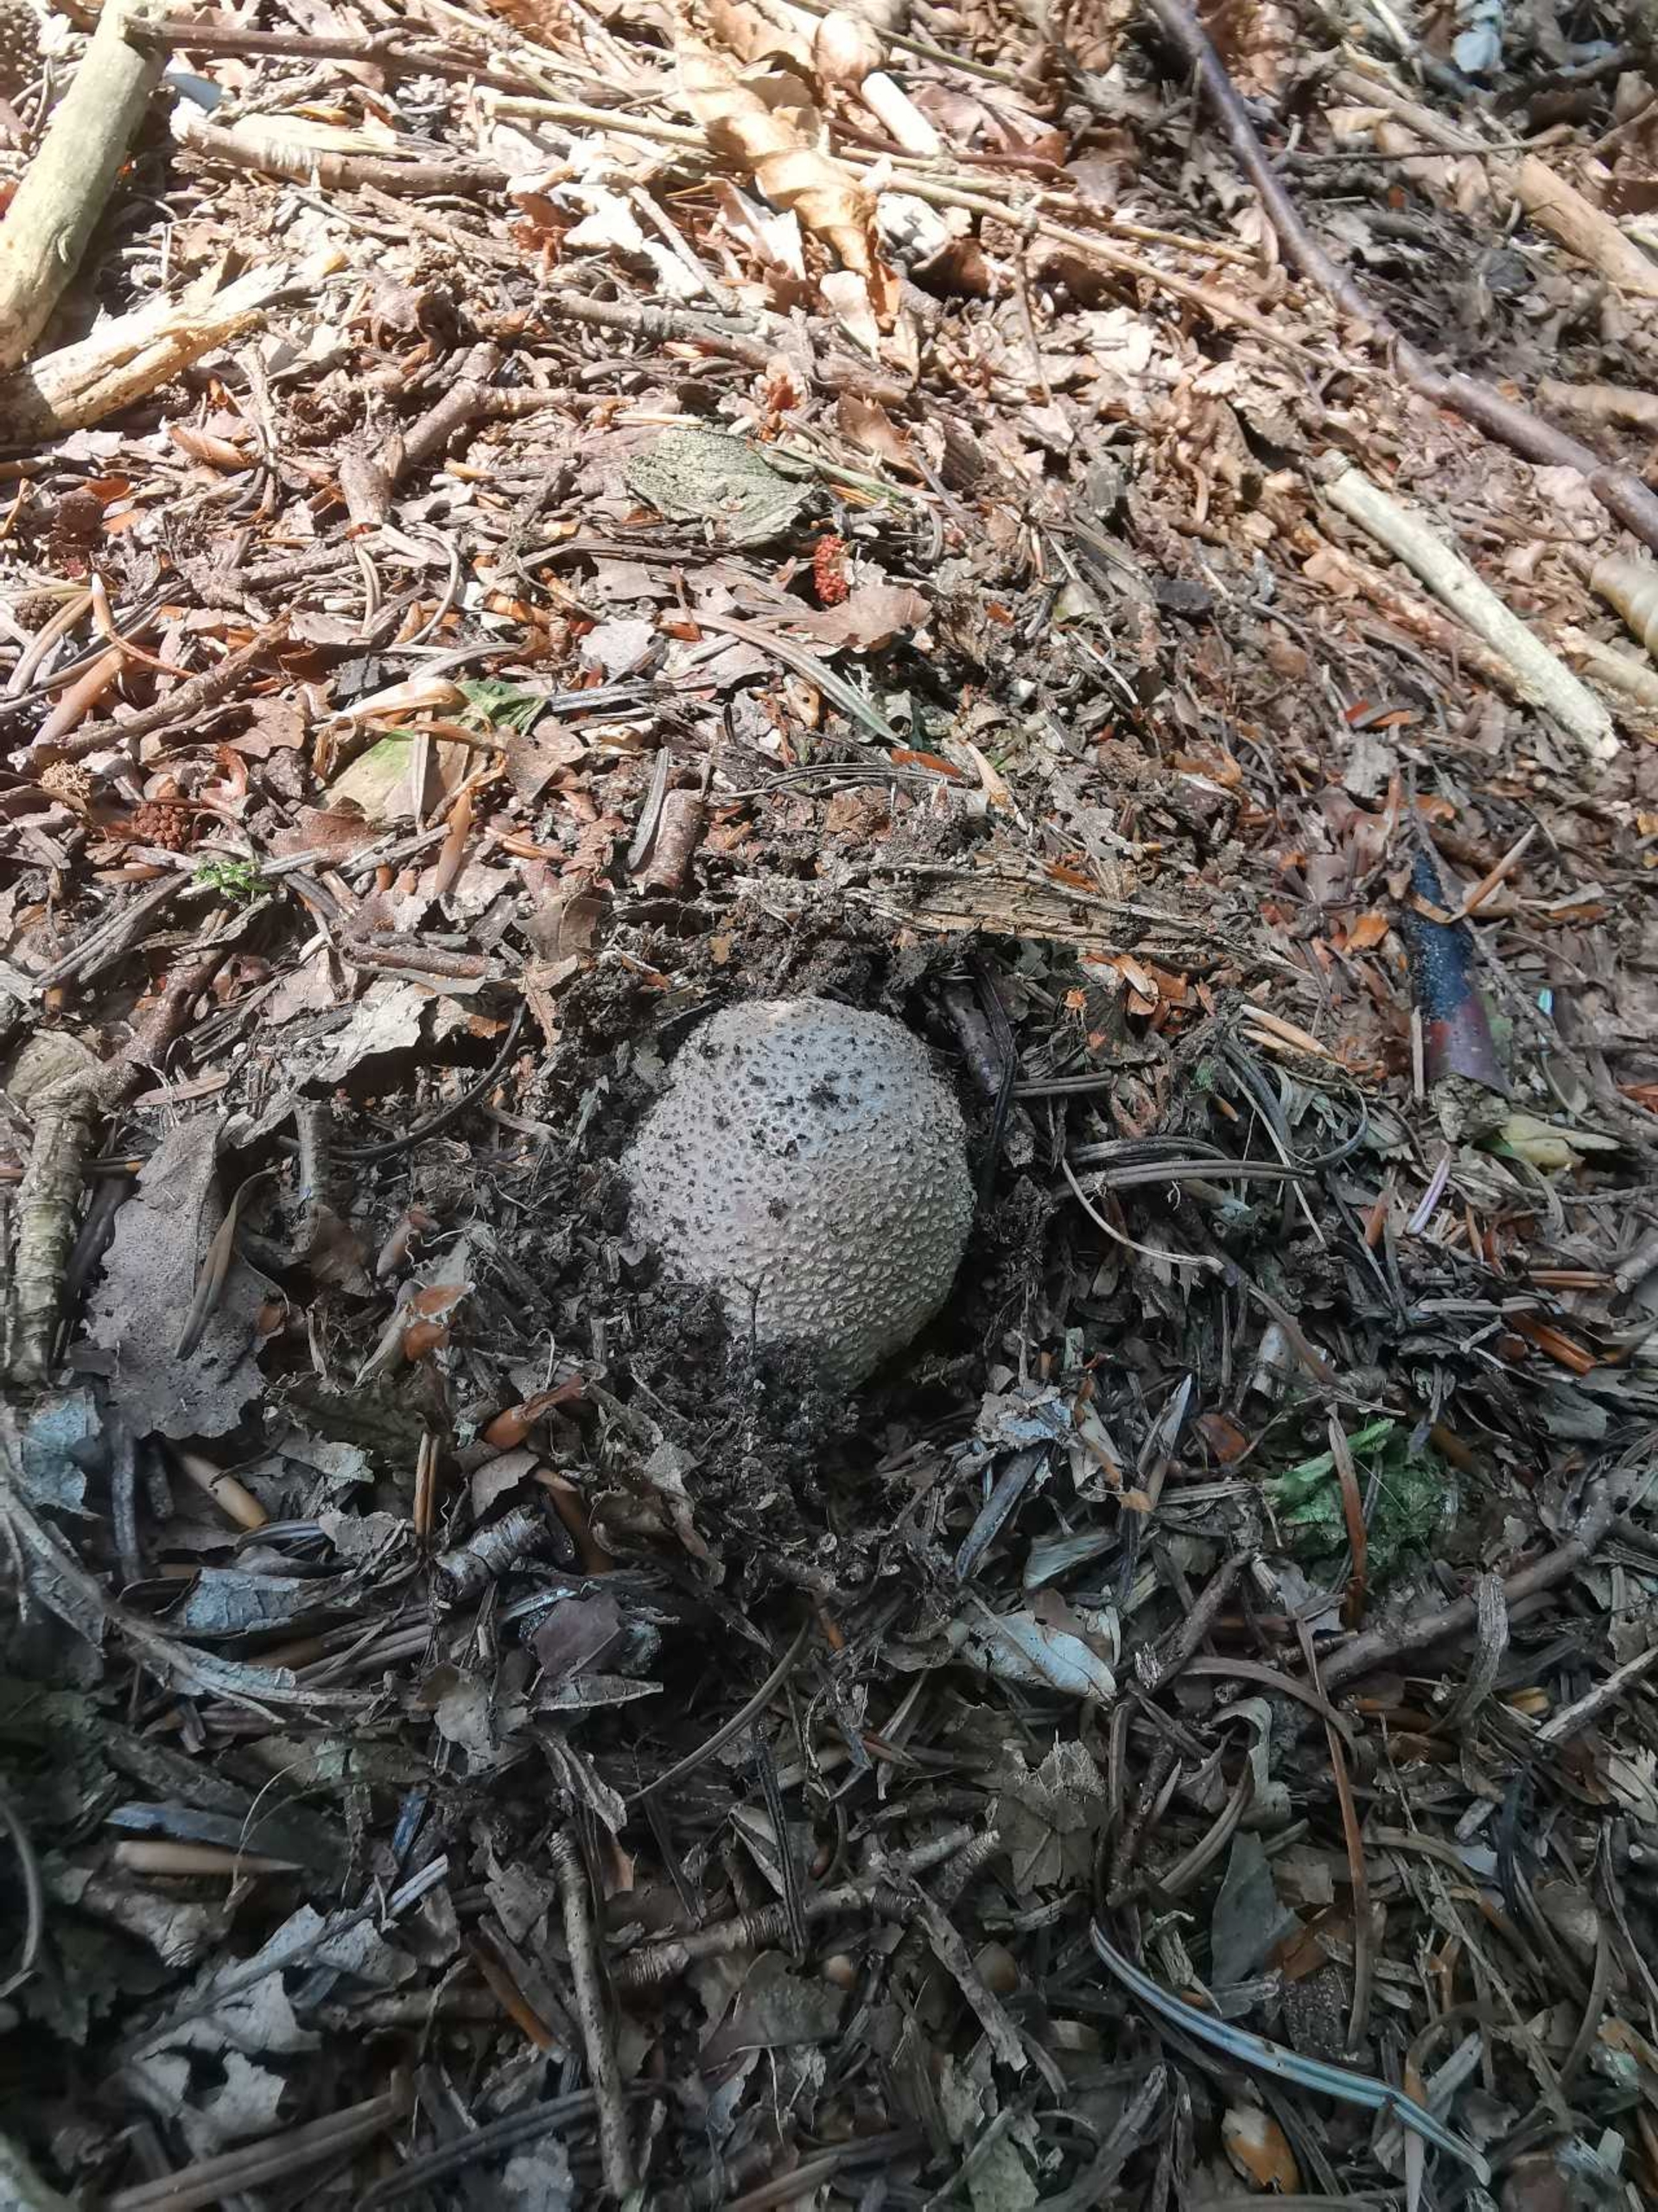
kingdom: Fungi
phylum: Basidiomycota
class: Agaricomycetes
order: Agaricales
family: Amanitaceae
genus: Amanita
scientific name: Amanita rubescens
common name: Rødmende fluesvamp
